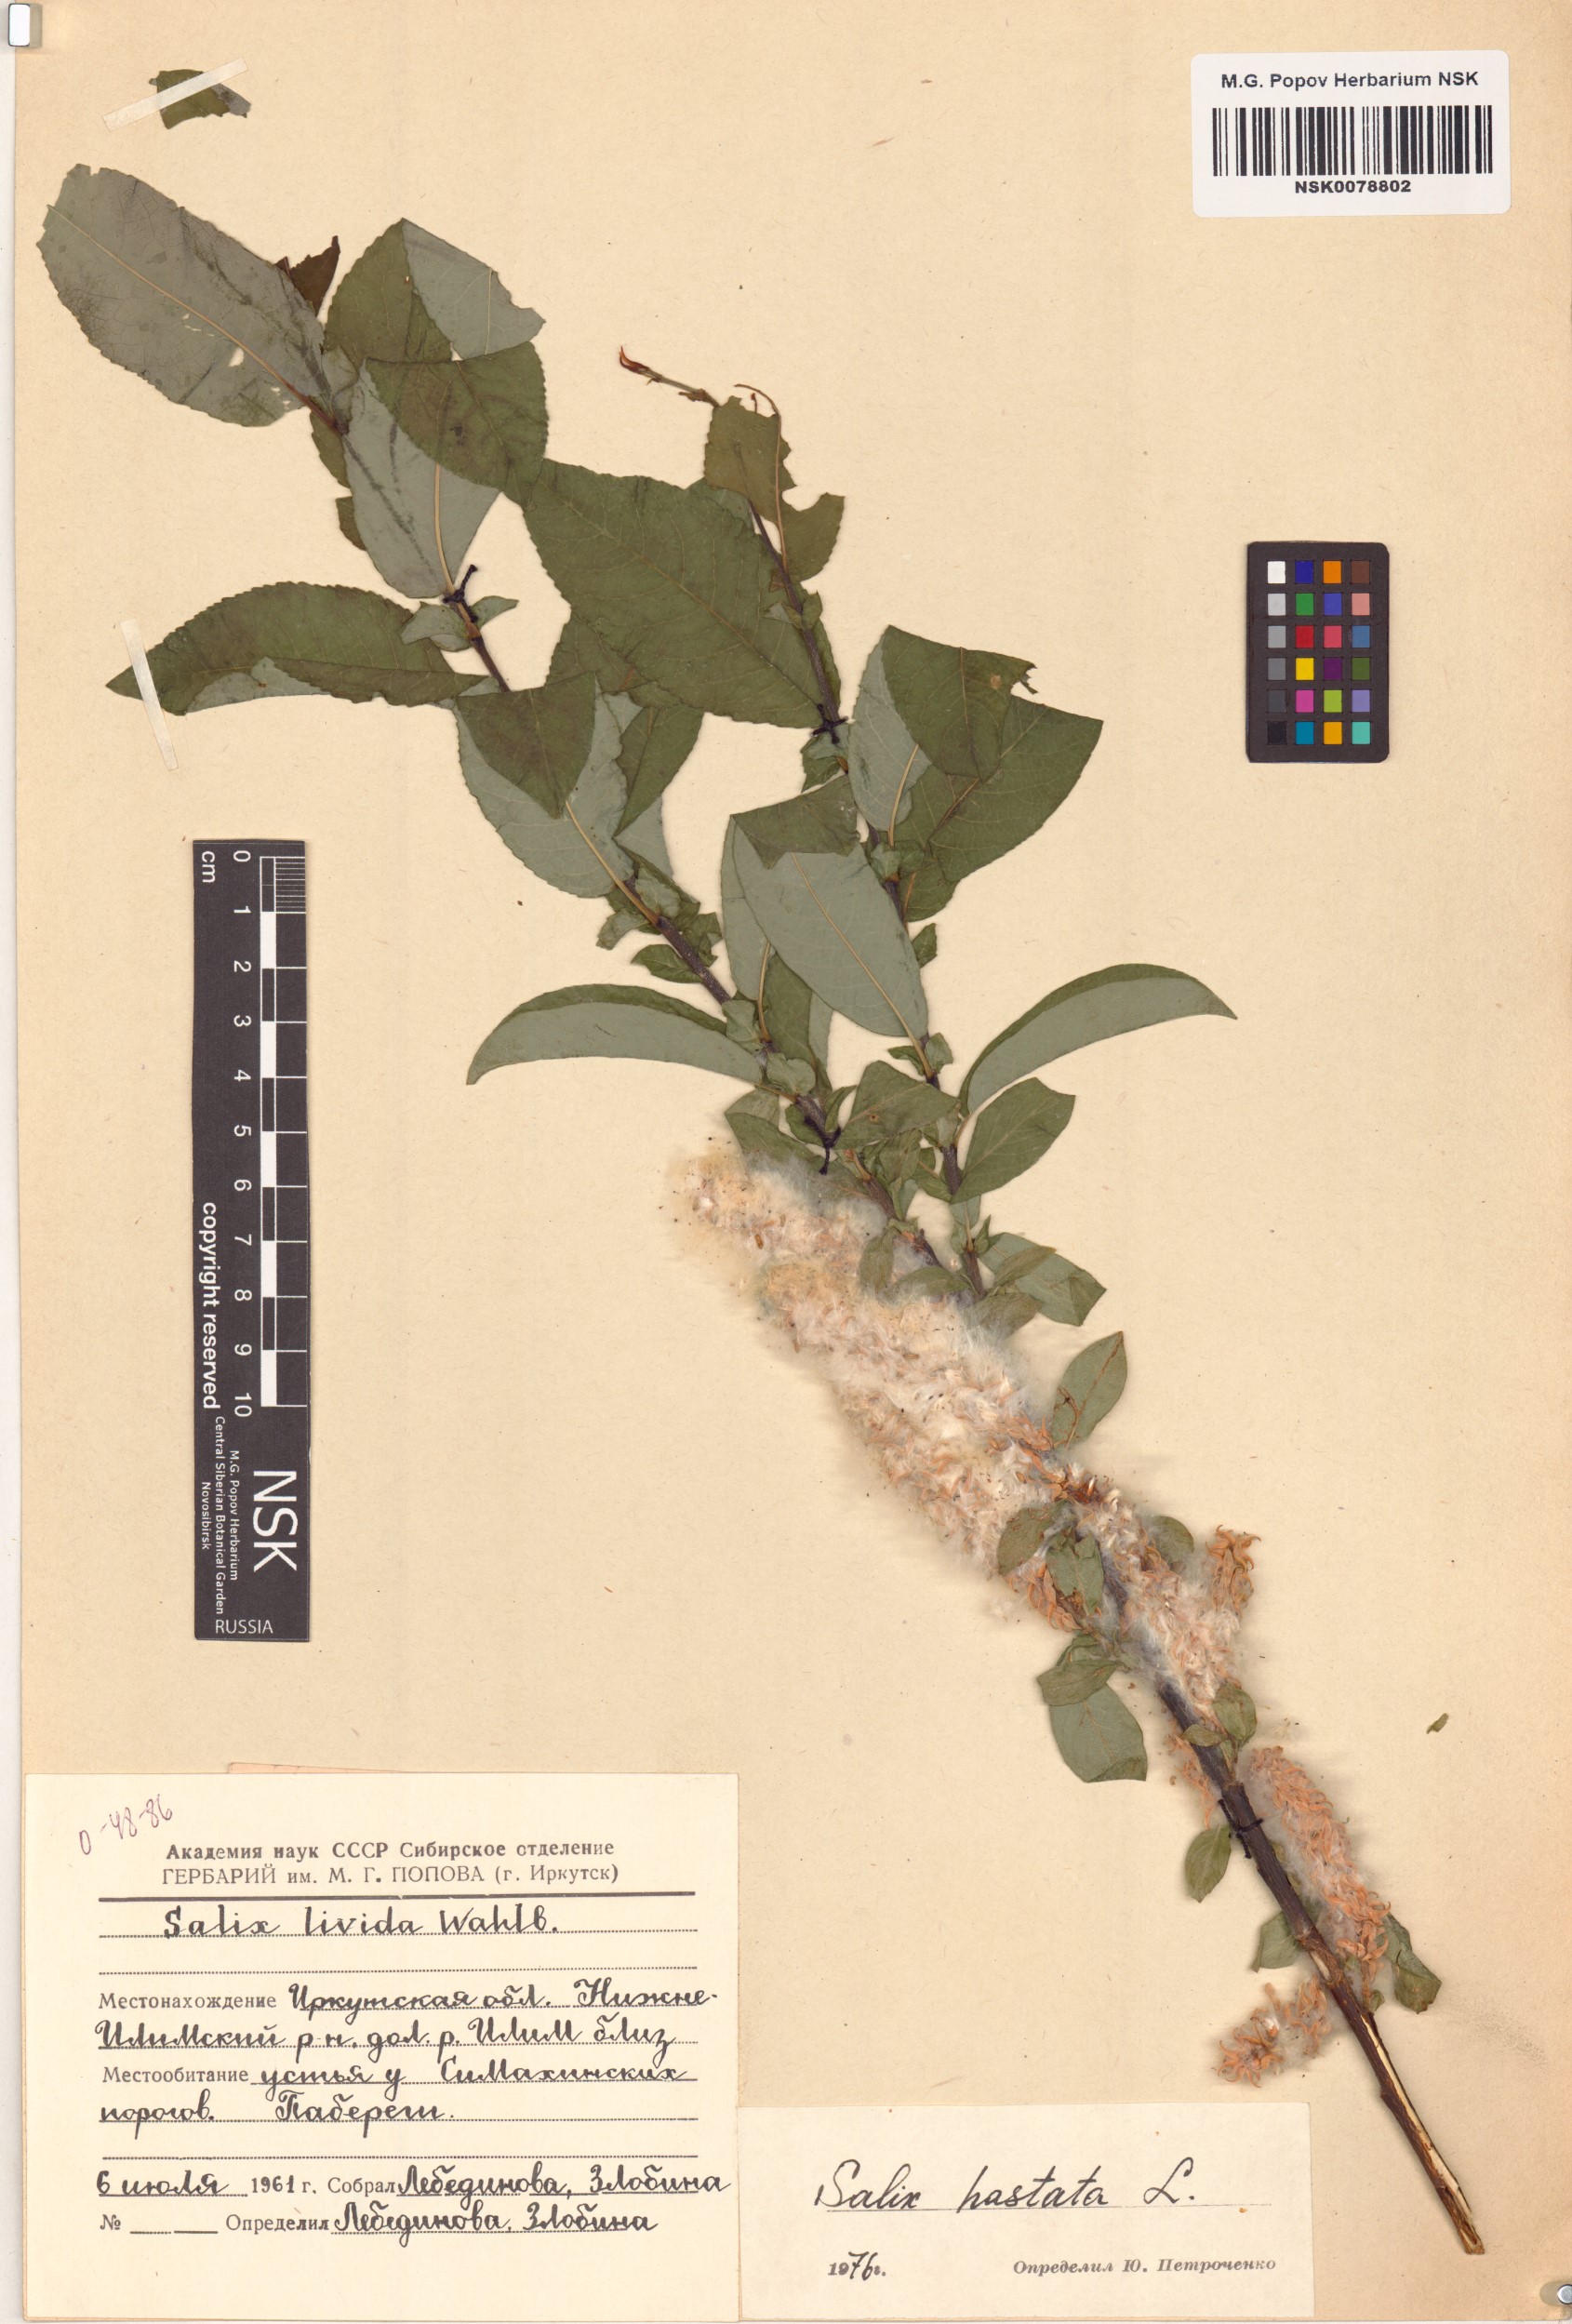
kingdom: Plantae
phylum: Tracheophyta
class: Magnoliopsida
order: Malpighiales
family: Salicaceae
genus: Salix
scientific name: Salix hastata
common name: Halberd willow
